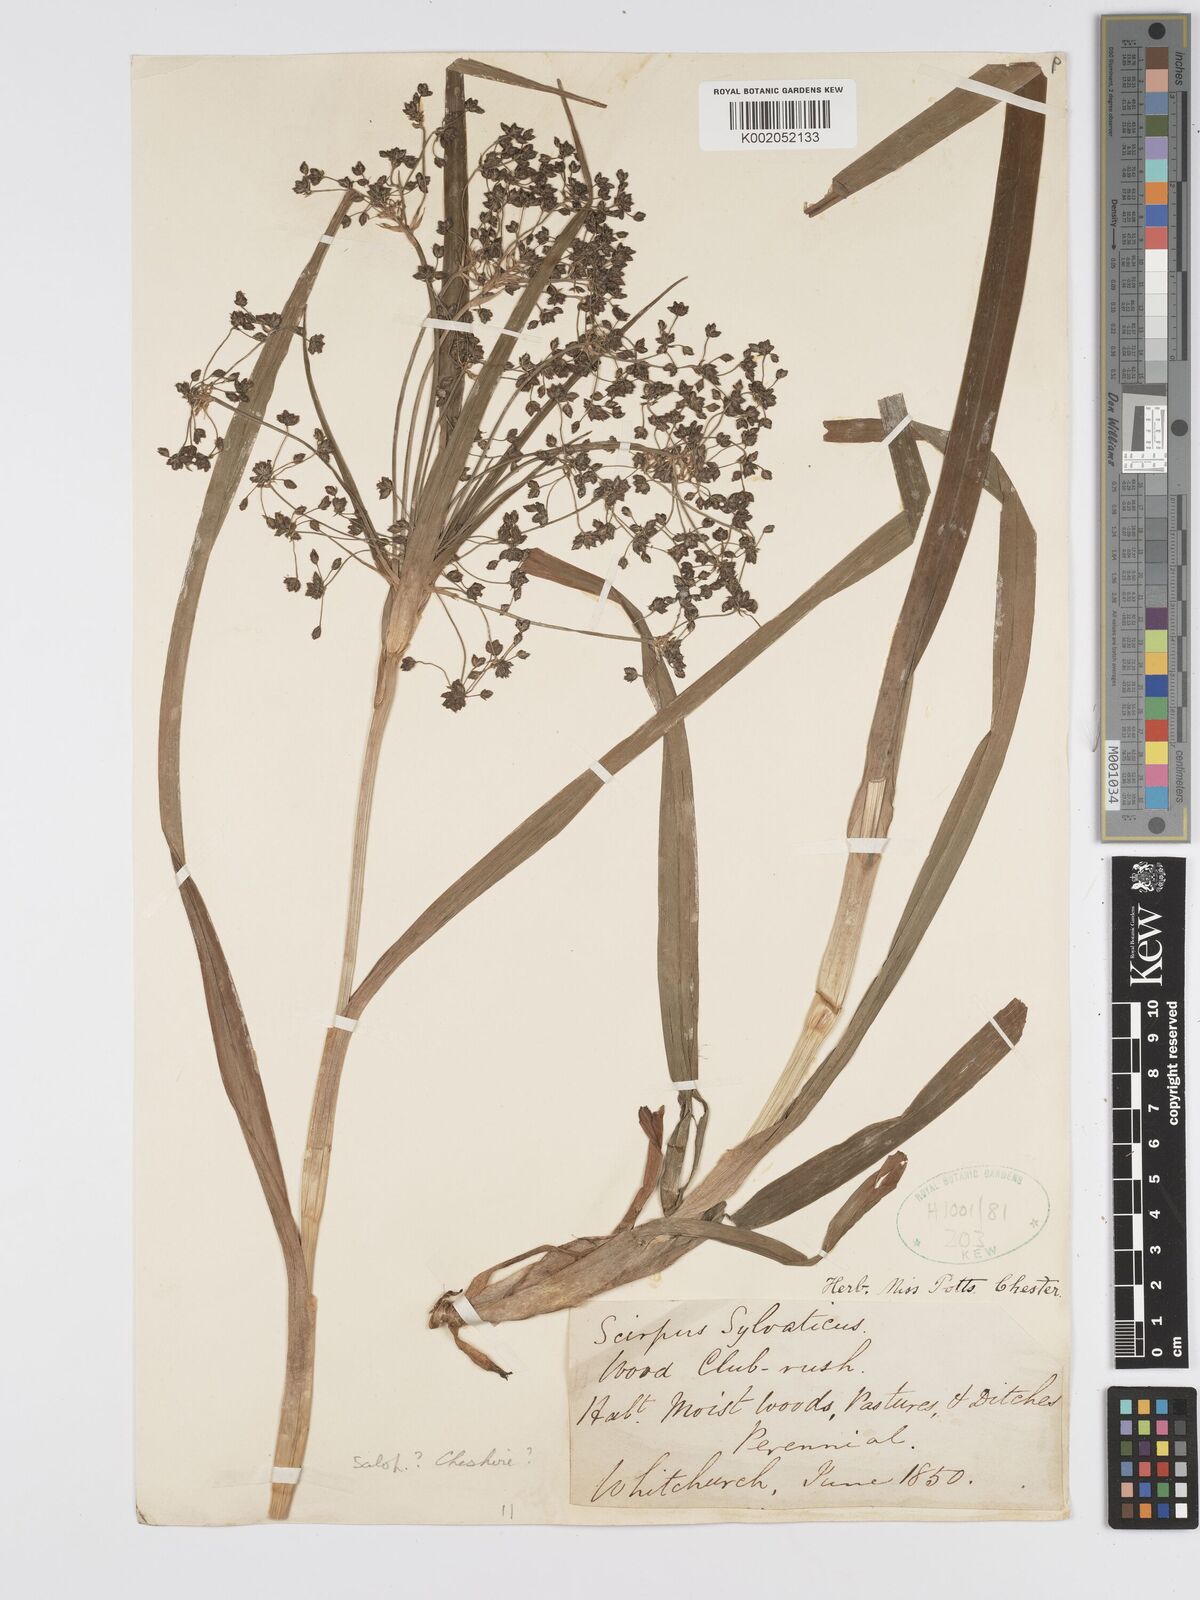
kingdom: Plantae
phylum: Tracheophyta
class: Liliopsida
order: Poales
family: Cyperaceae
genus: Scirpus
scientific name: Scirpus sylvaticus
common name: Wood club-rush
